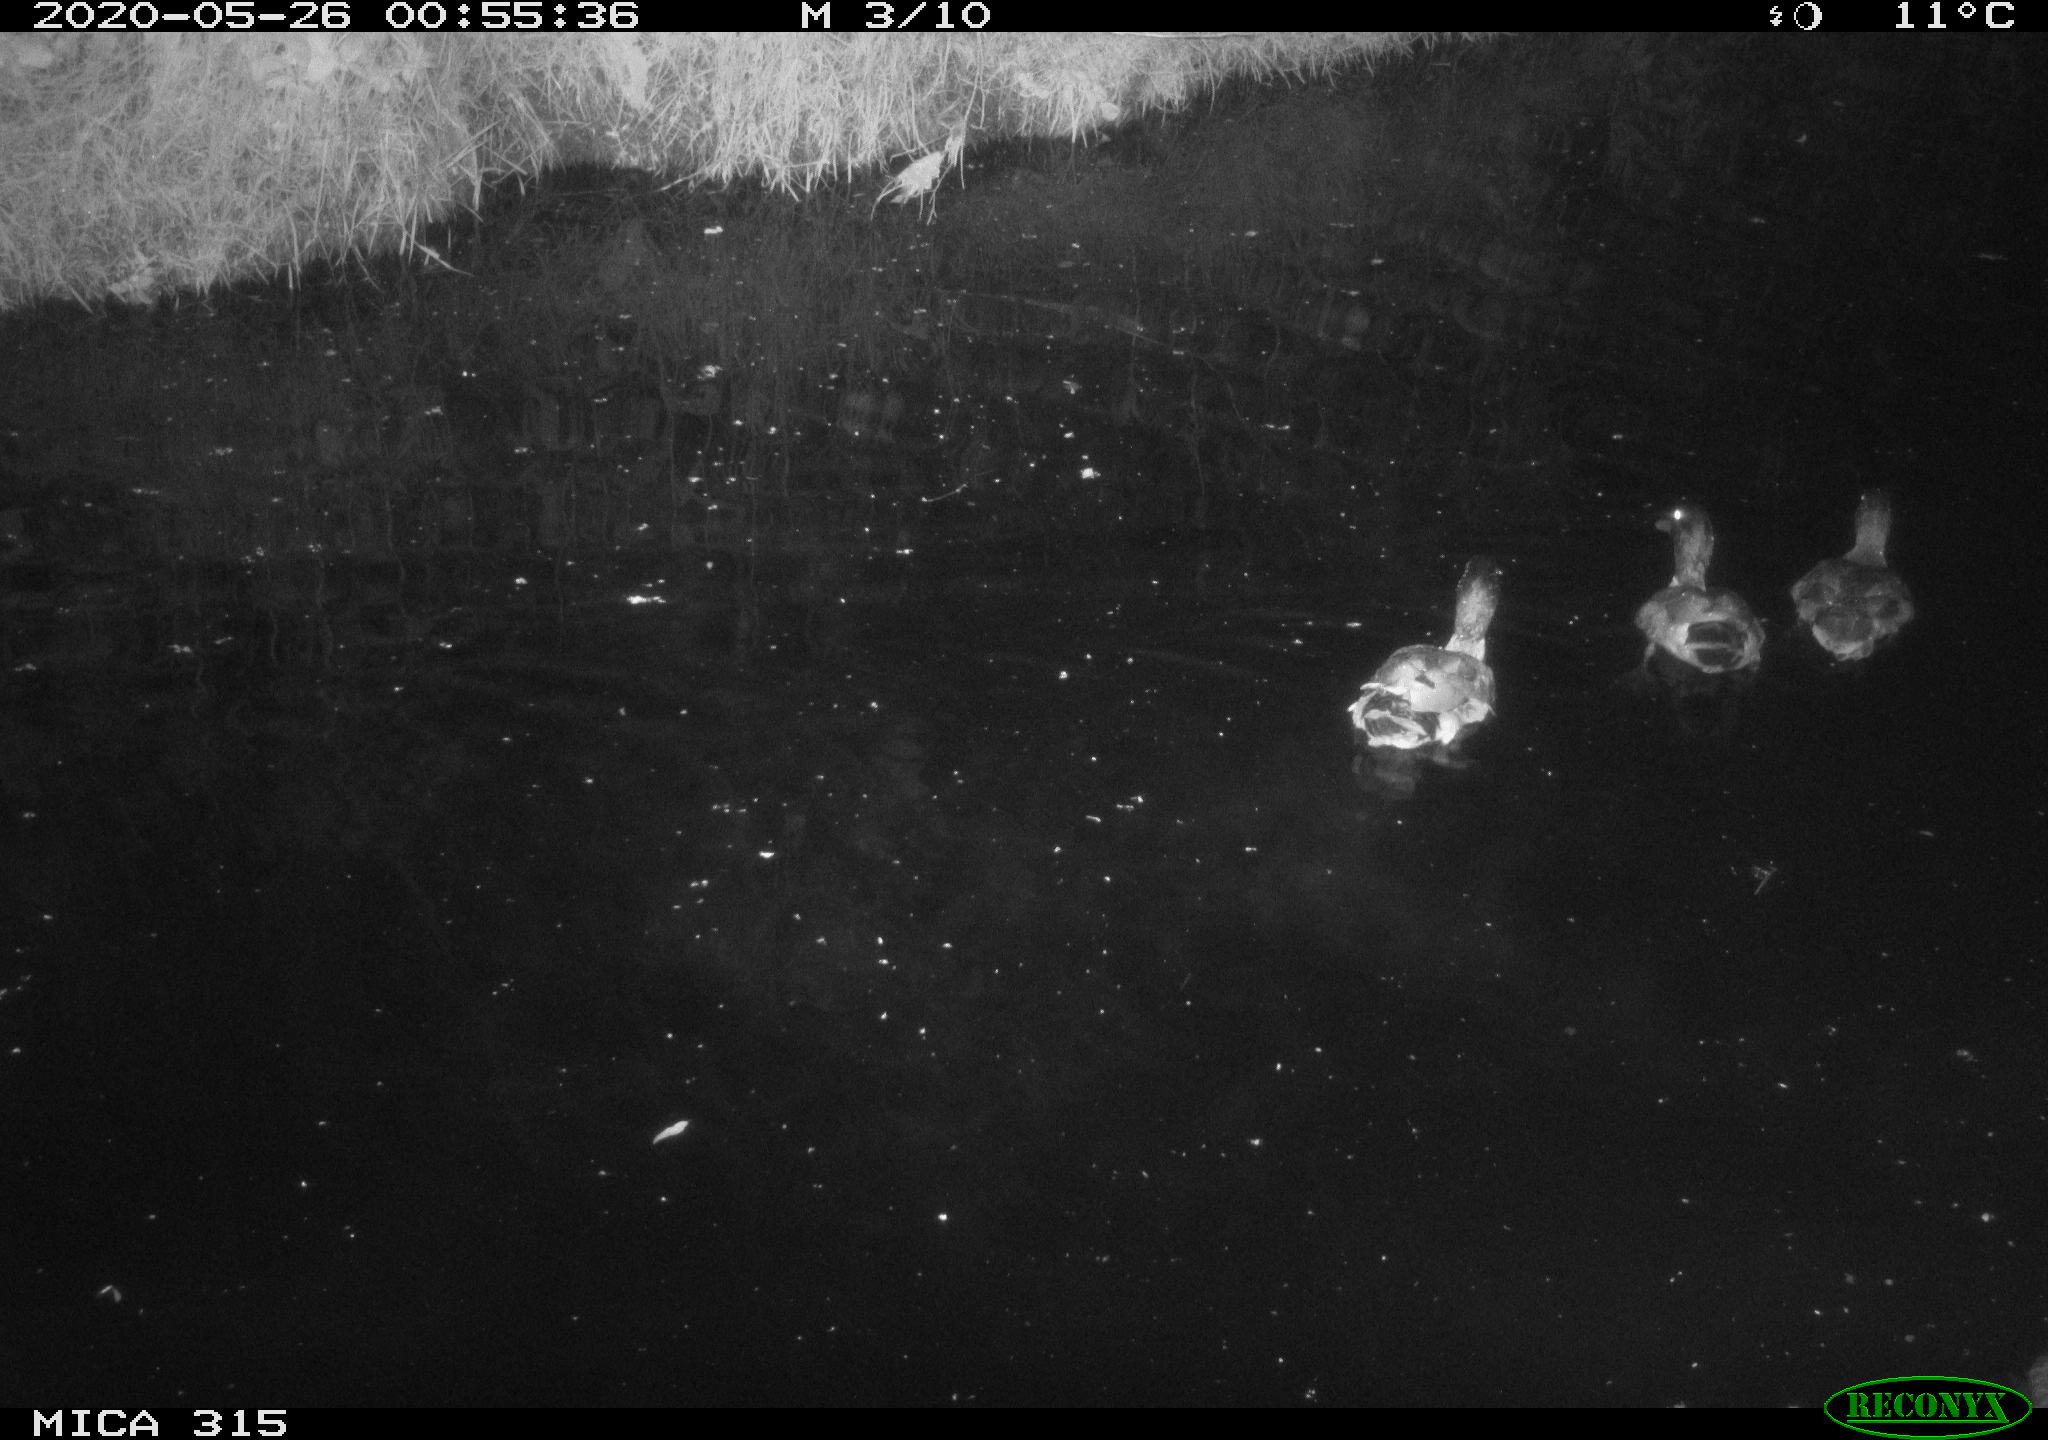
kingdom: Animalia
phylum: Chordata
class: Aves
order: Anseriformes
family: Anatidae
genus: Anas
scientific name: Anas platyrhynchos
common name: Mallard
